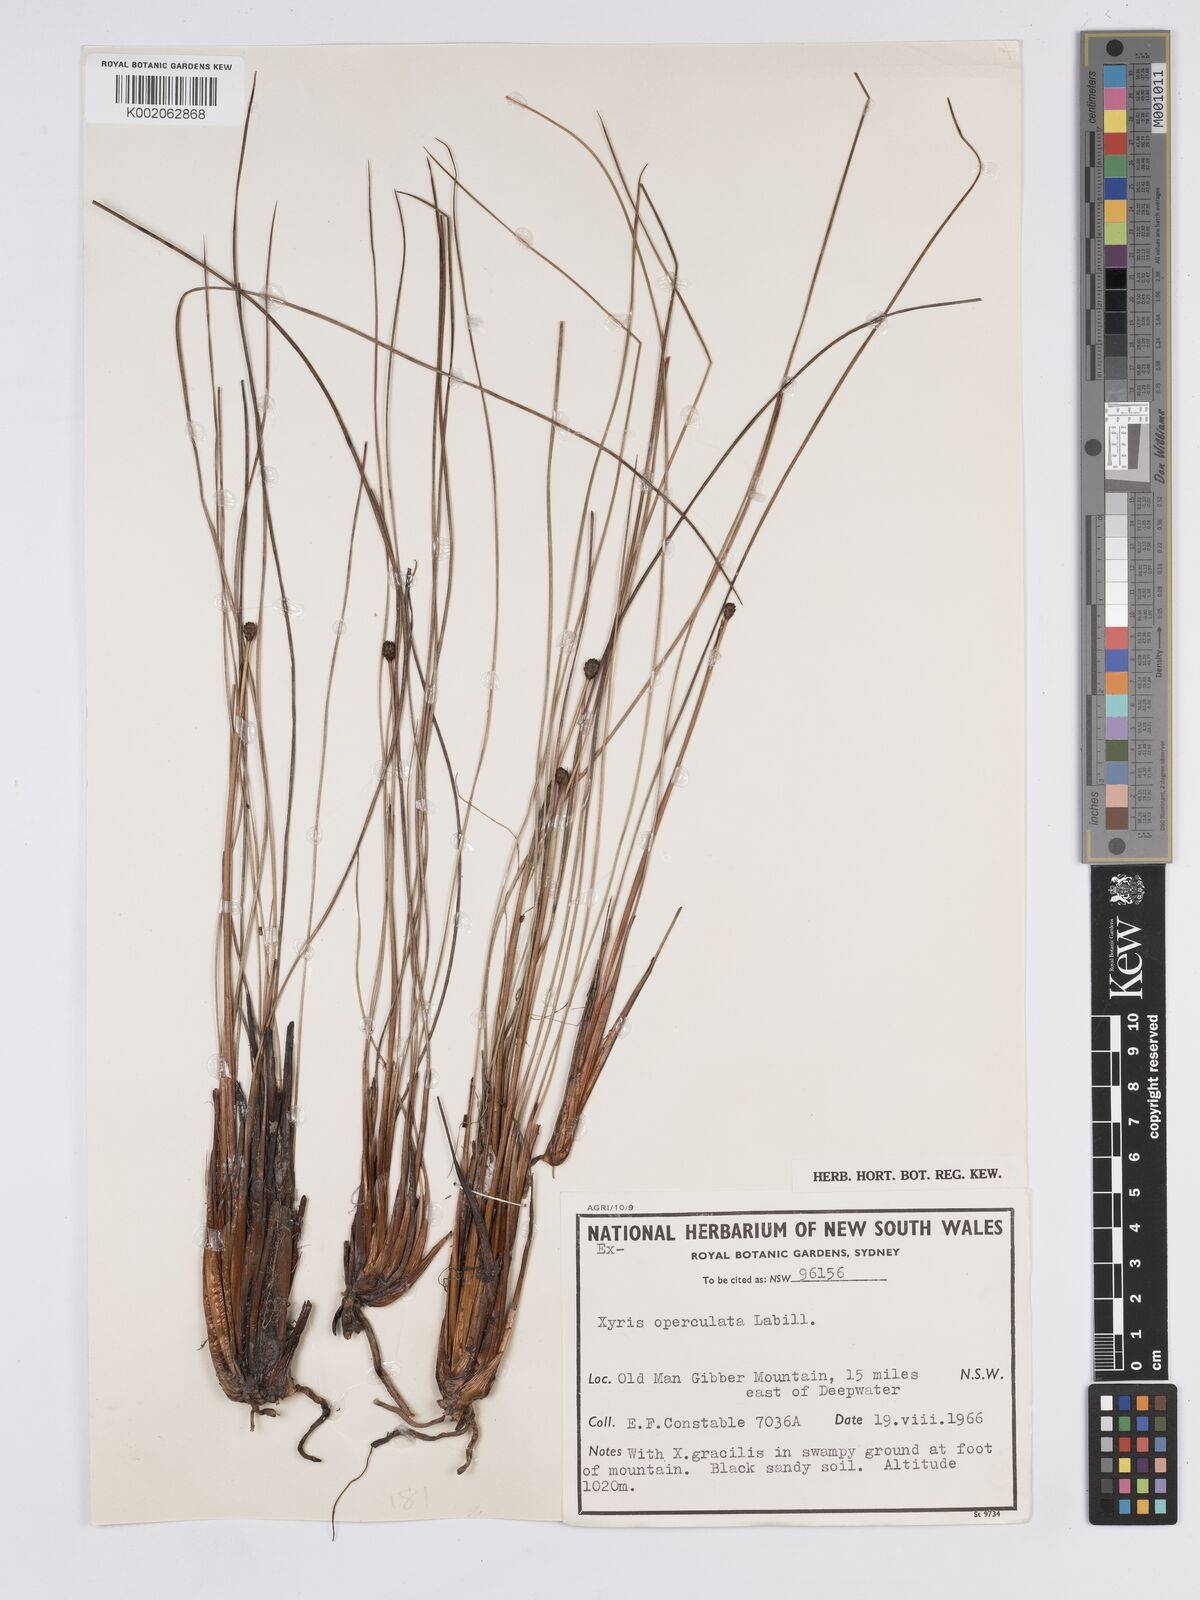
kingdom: Plantae
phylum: Tracheophyta
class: Liliopsida
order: Poales
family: Xyridaceae
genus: Xyris
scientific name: Xyris operculata
